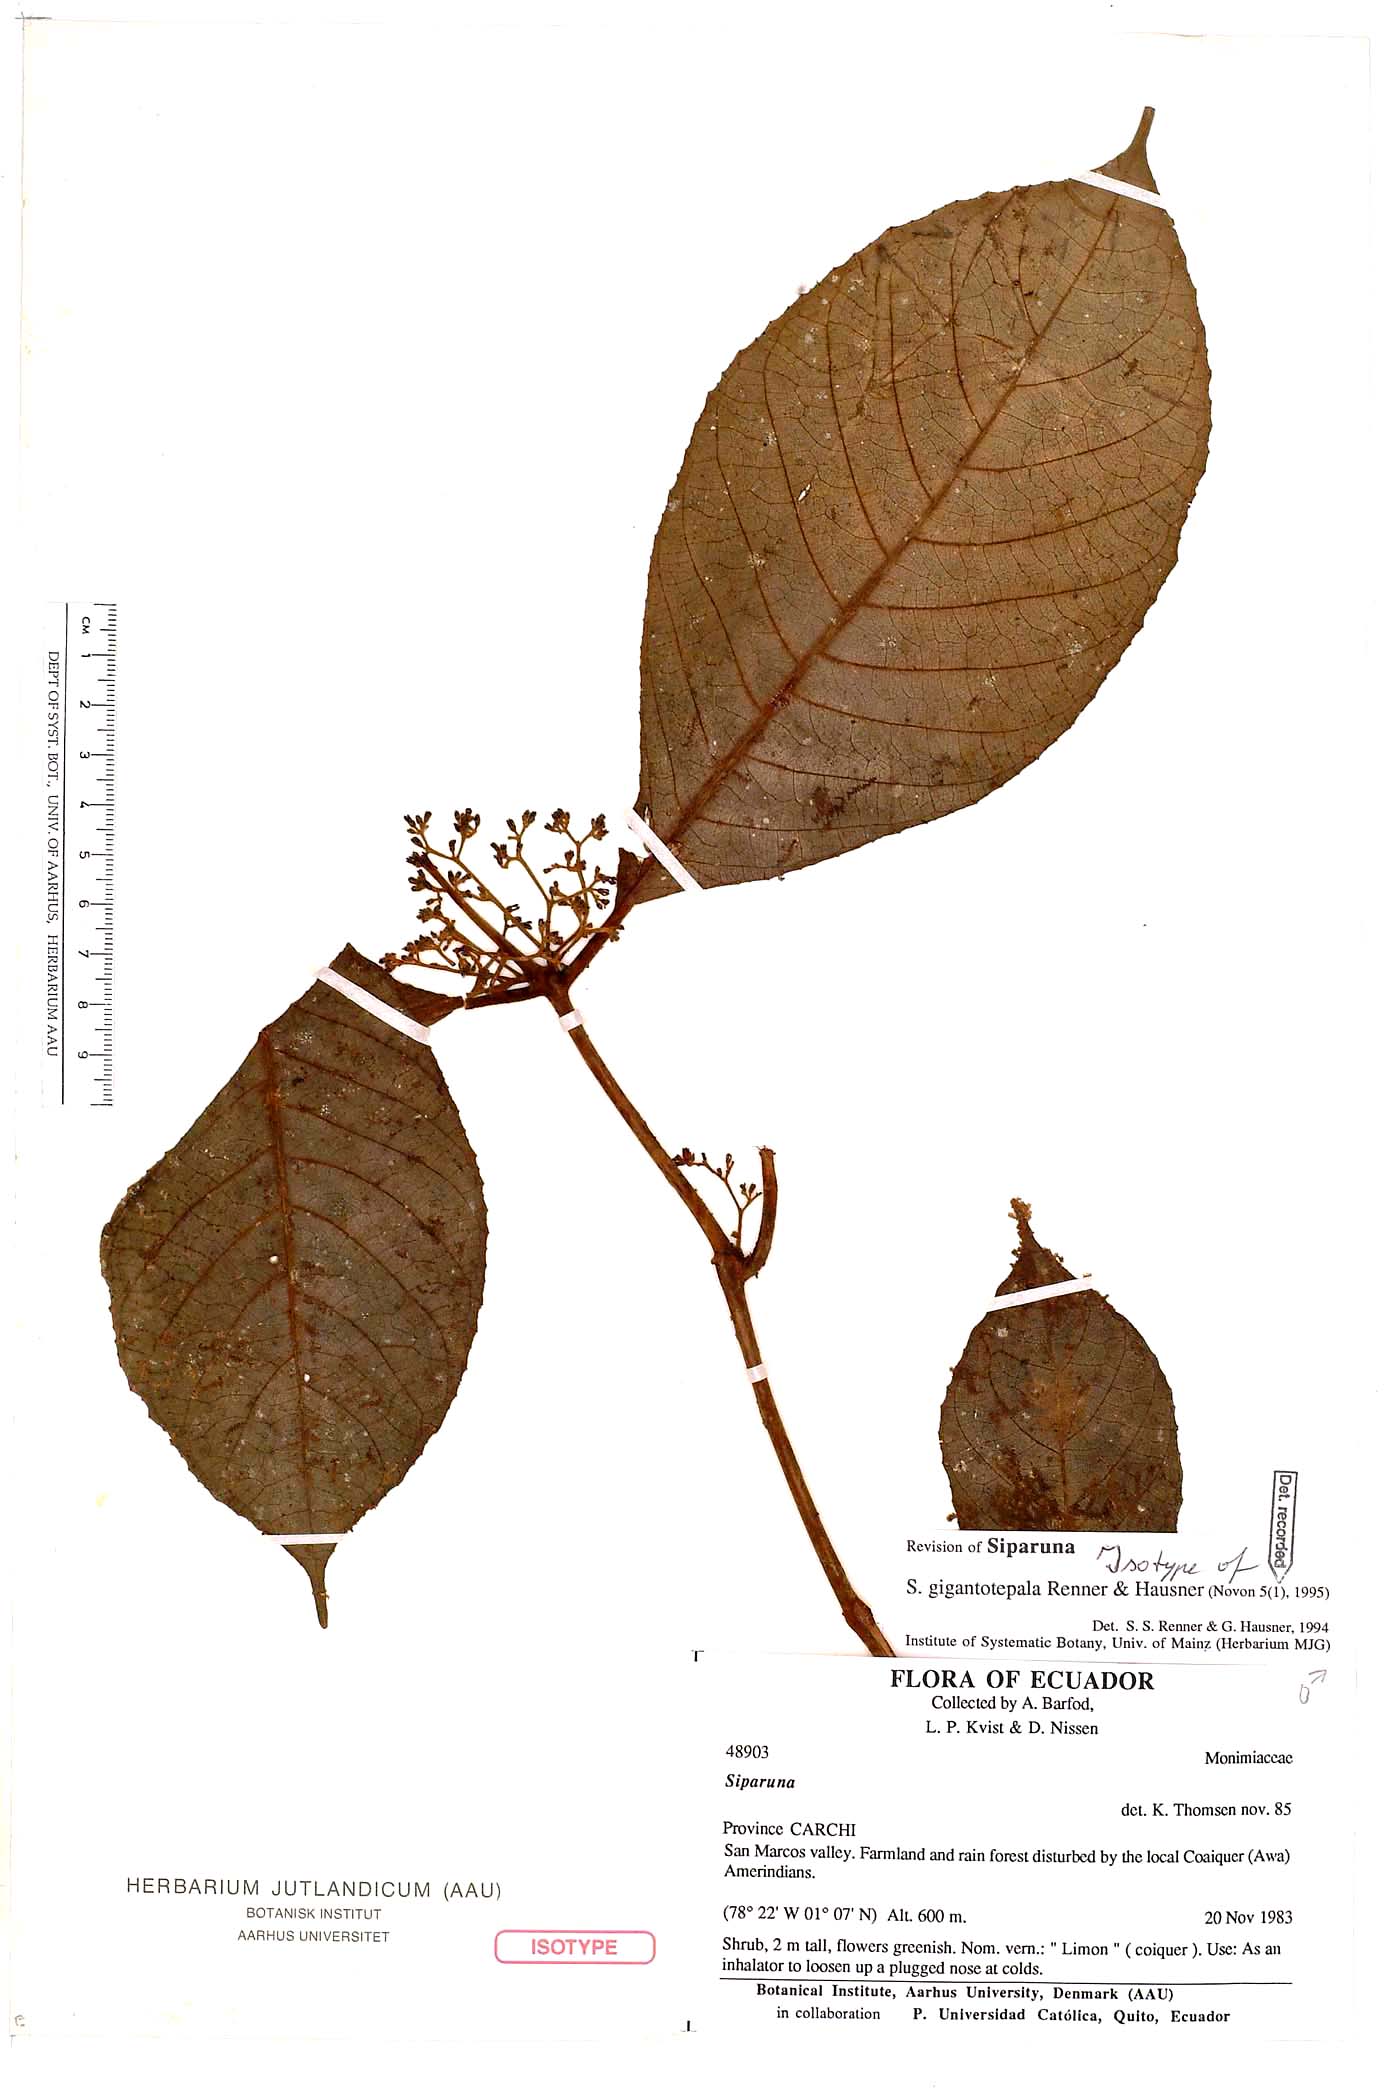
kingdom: Plantae
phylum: Tracheophyta
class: Magnoliopsida
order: Laurales
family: Siparunaceae
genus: Siparuna
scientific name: Siparuna gigantotepala
